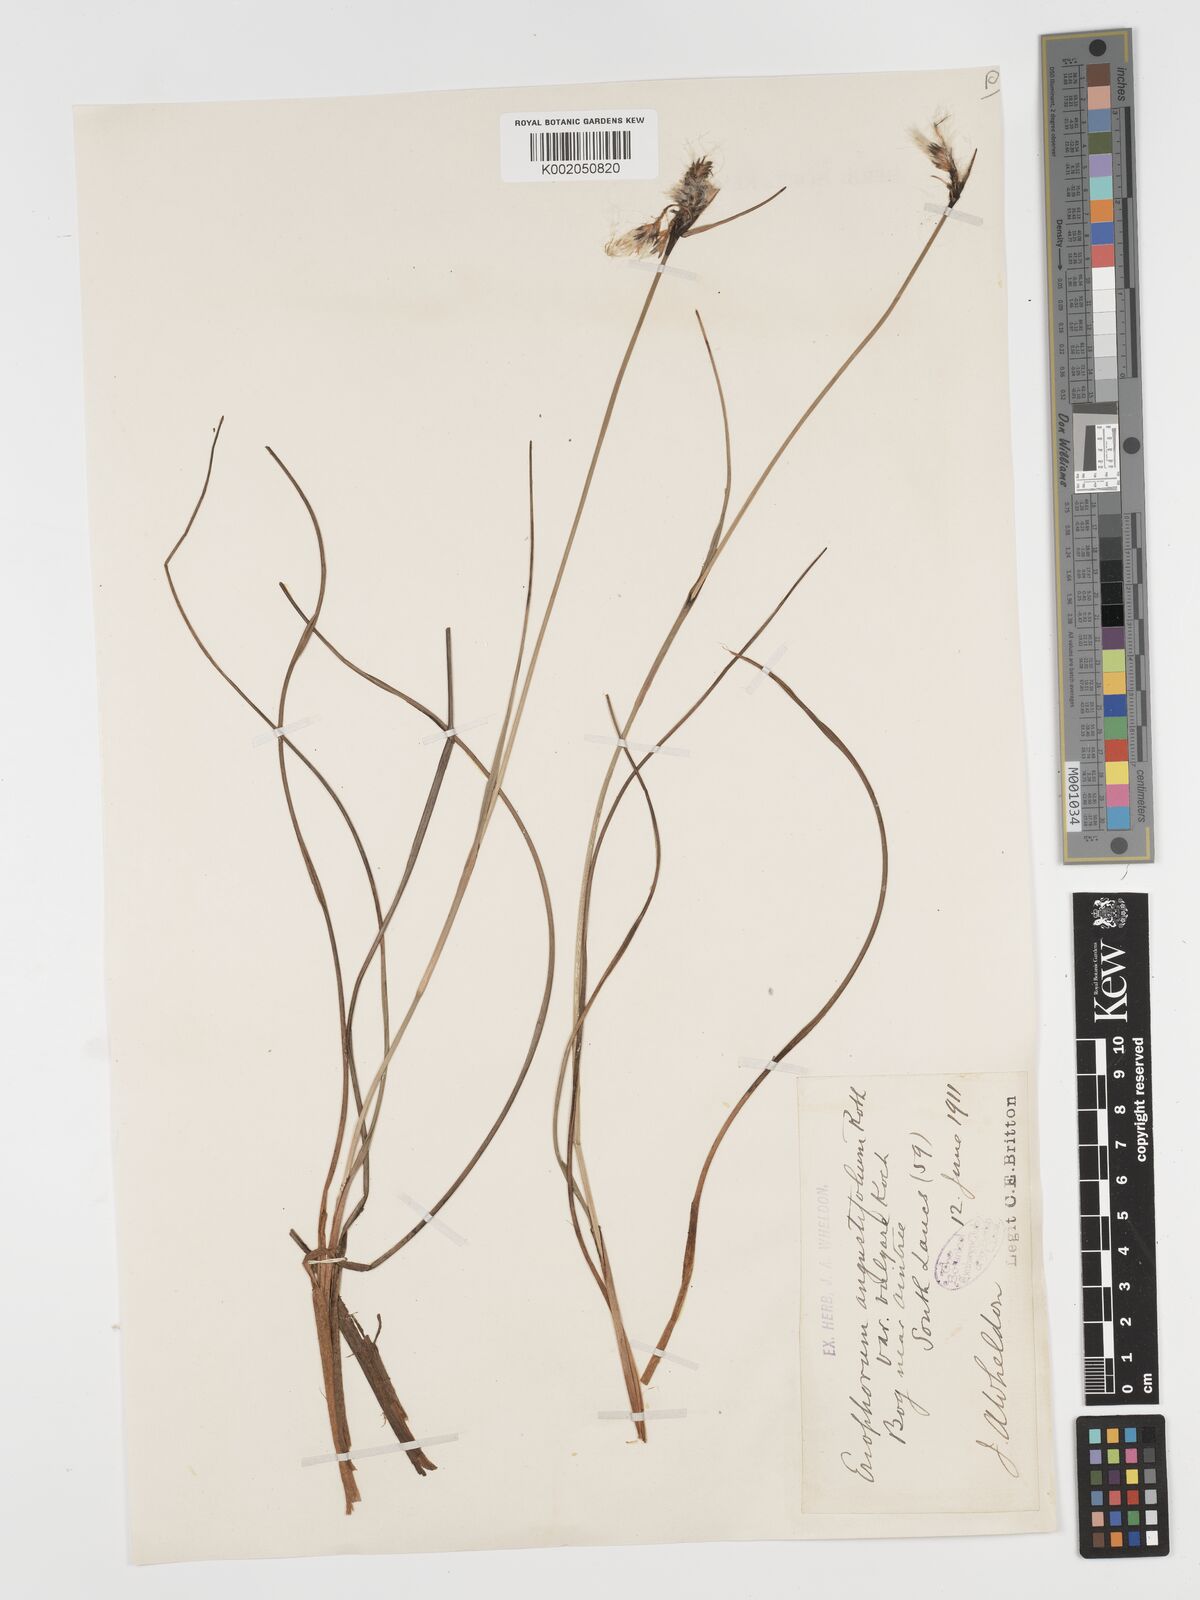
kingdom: Plantae
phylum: Tracheophyta
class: Liliopsida
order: Poales
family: Cyperaceae
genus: Eriophorum
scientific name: Eriophorum angustifolium
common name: Common cottongrass
